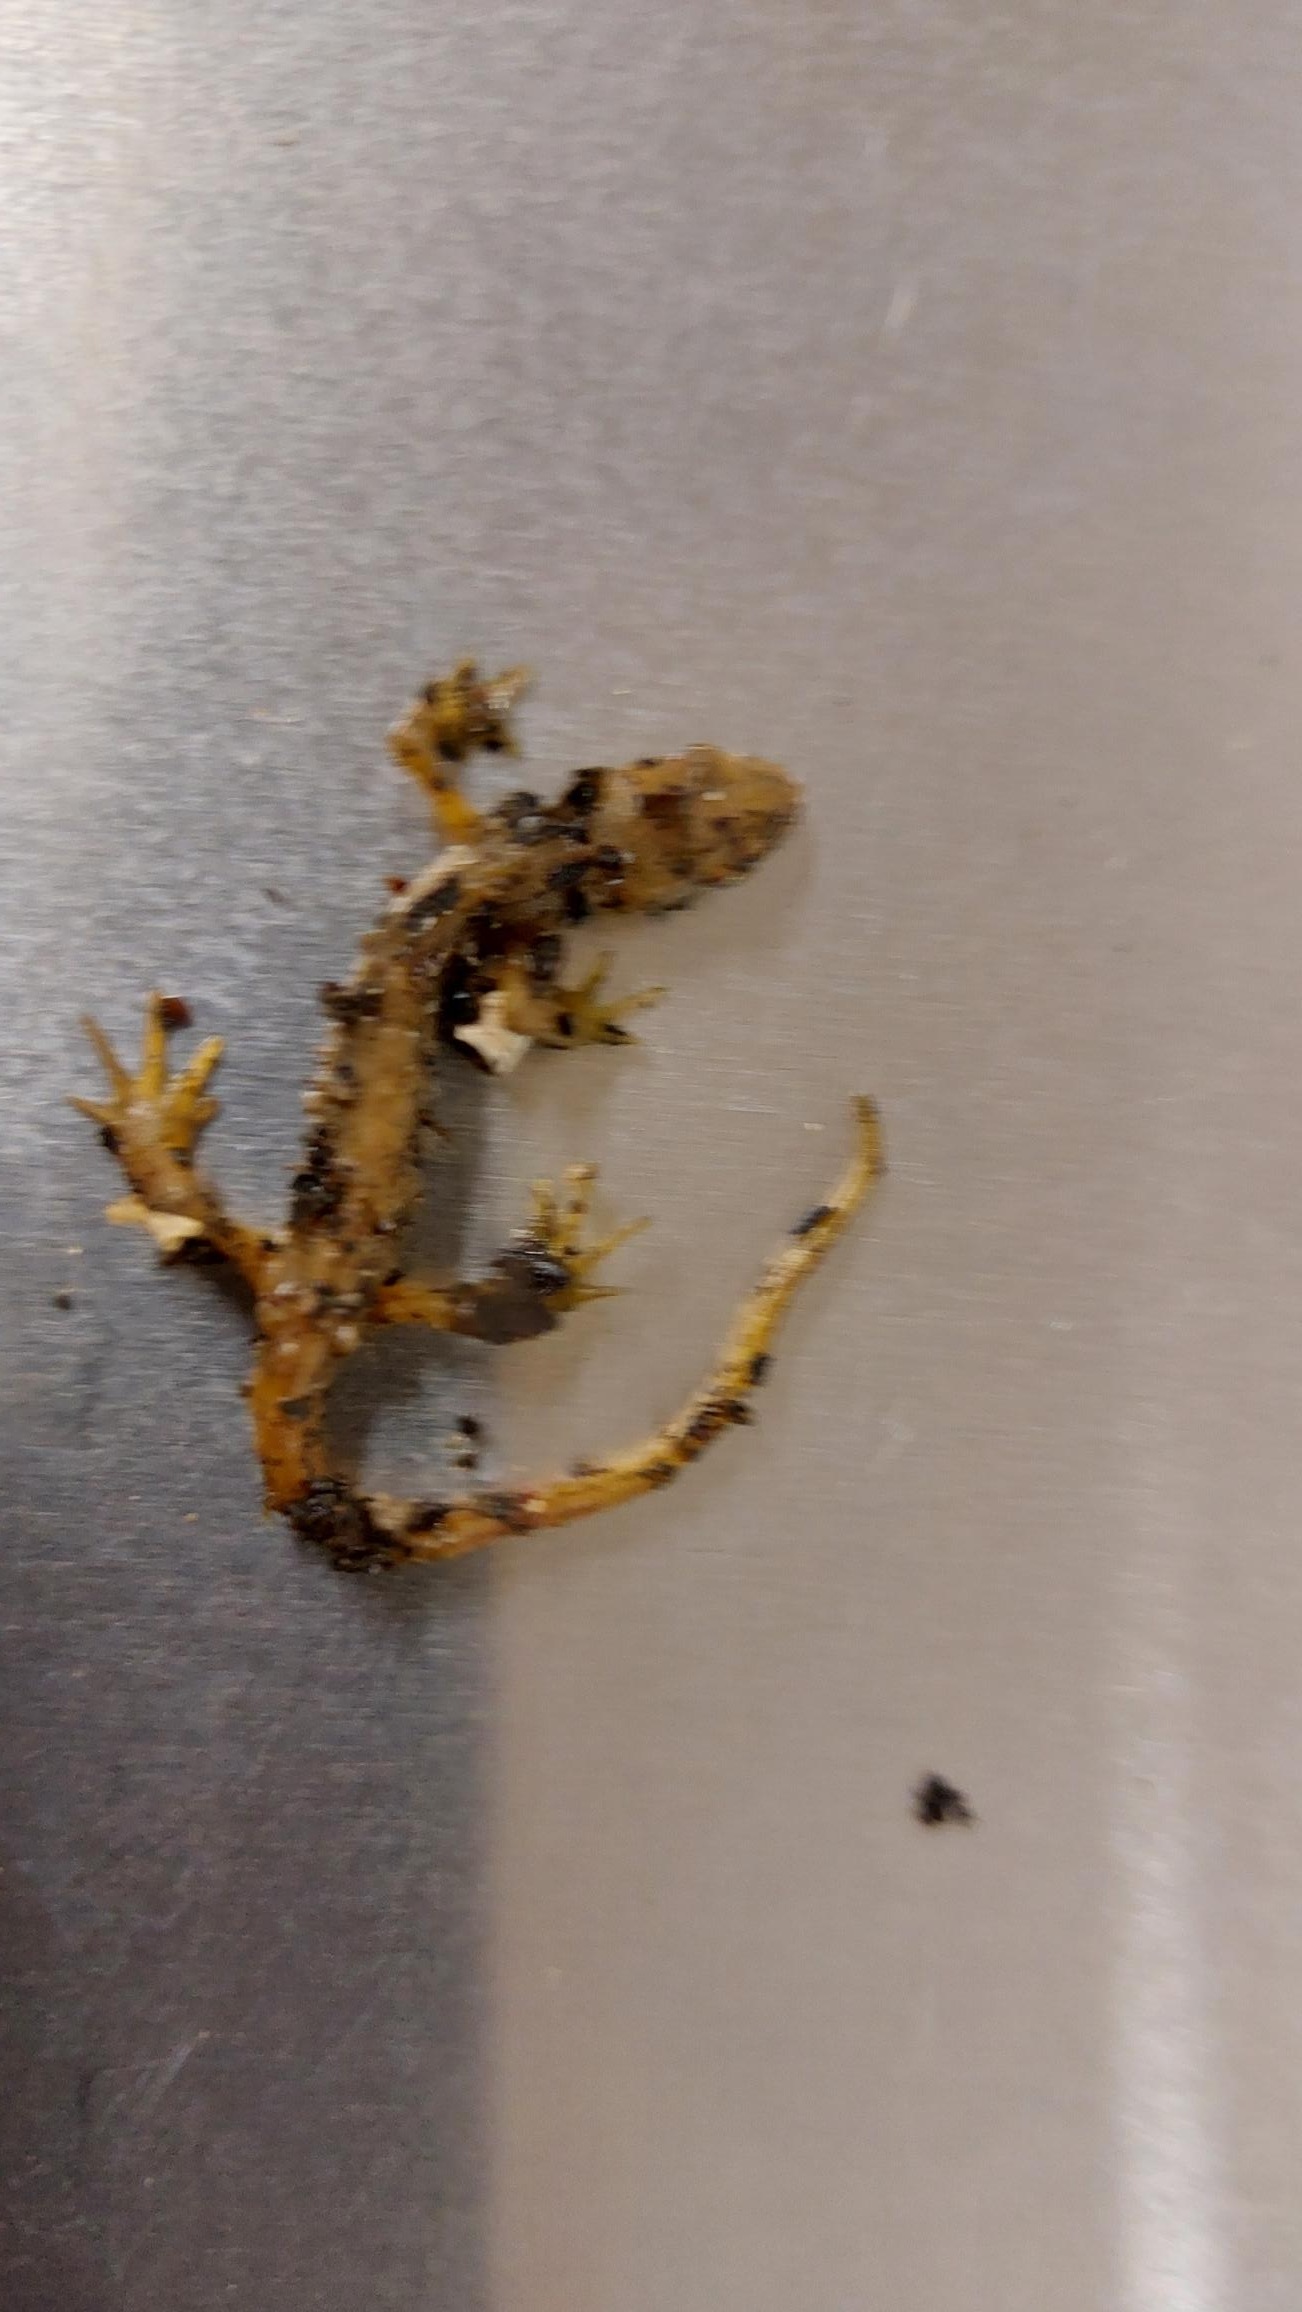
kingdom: Animalia
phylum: Chordata
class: Amphibia
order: Caudata
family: Salamandridae
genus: Lissotriton
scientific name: Lissotriton vulgaris
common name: Lille vandsalamander
